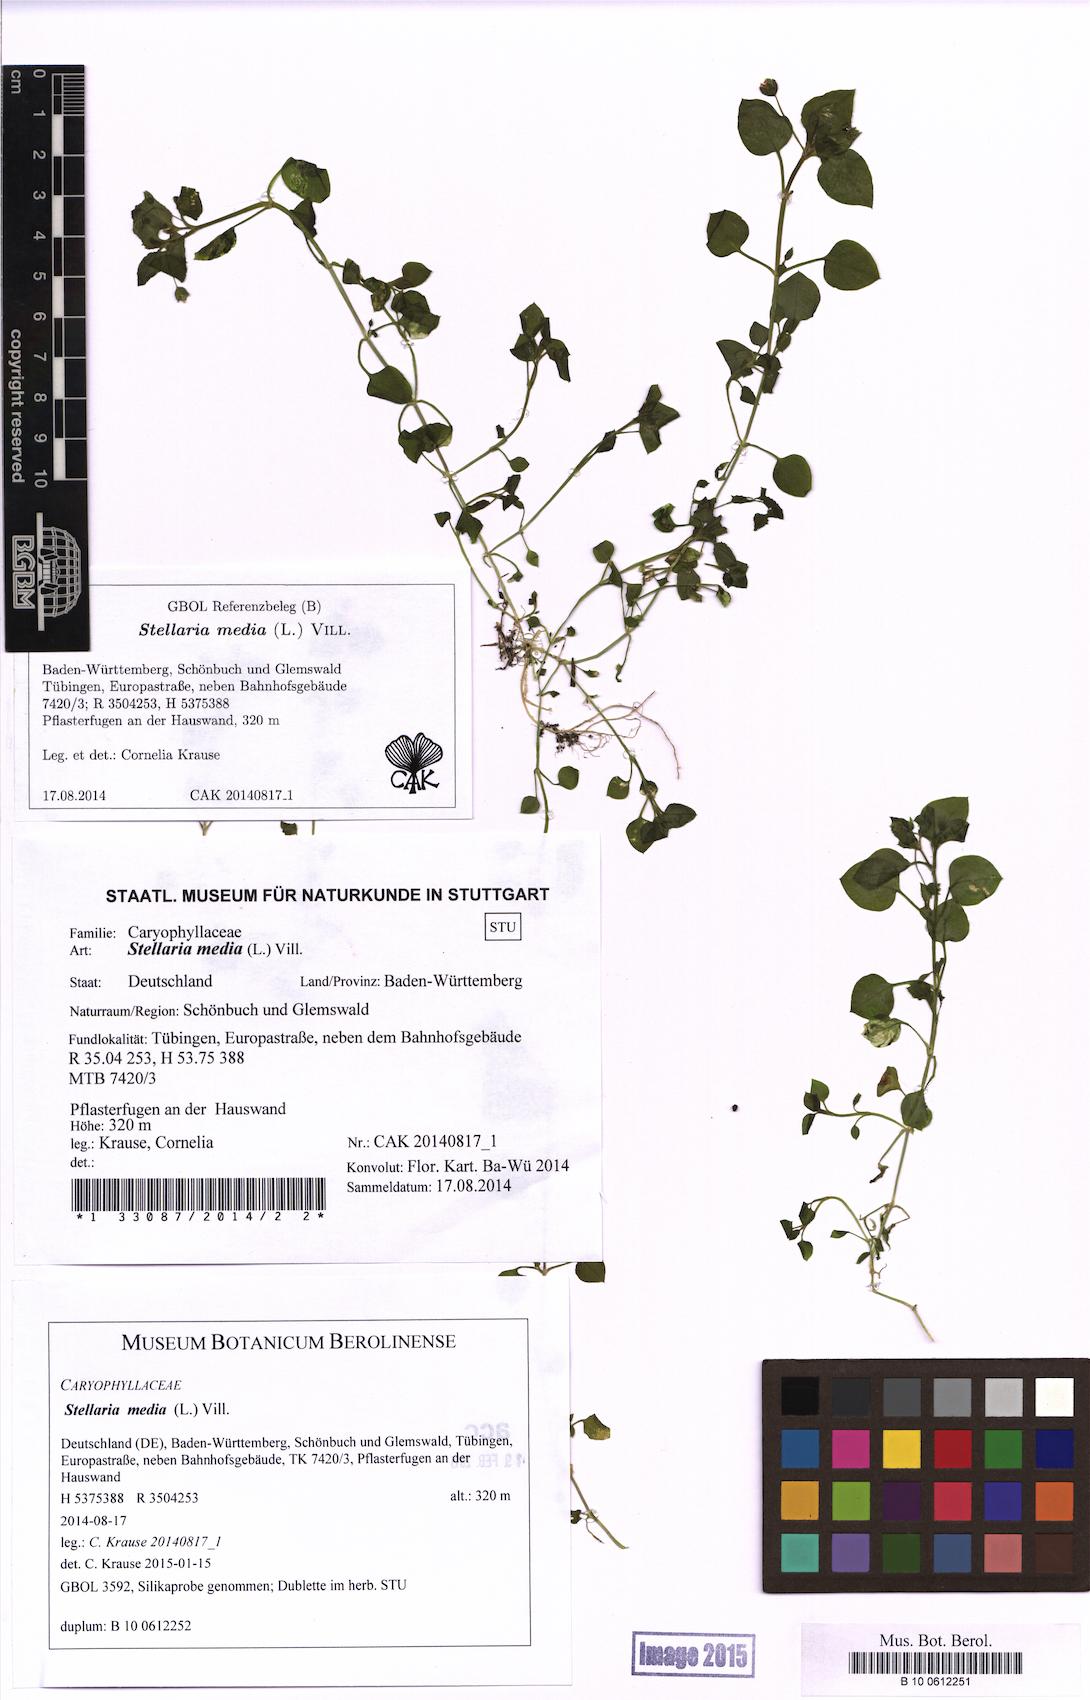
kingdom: Plantae
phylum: Tracheophyta
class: Magnoliopsida
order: Caryophyllales
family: Caryophyllaceae
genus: Stellaria
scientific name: Stellaria media
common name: Common chickweed
